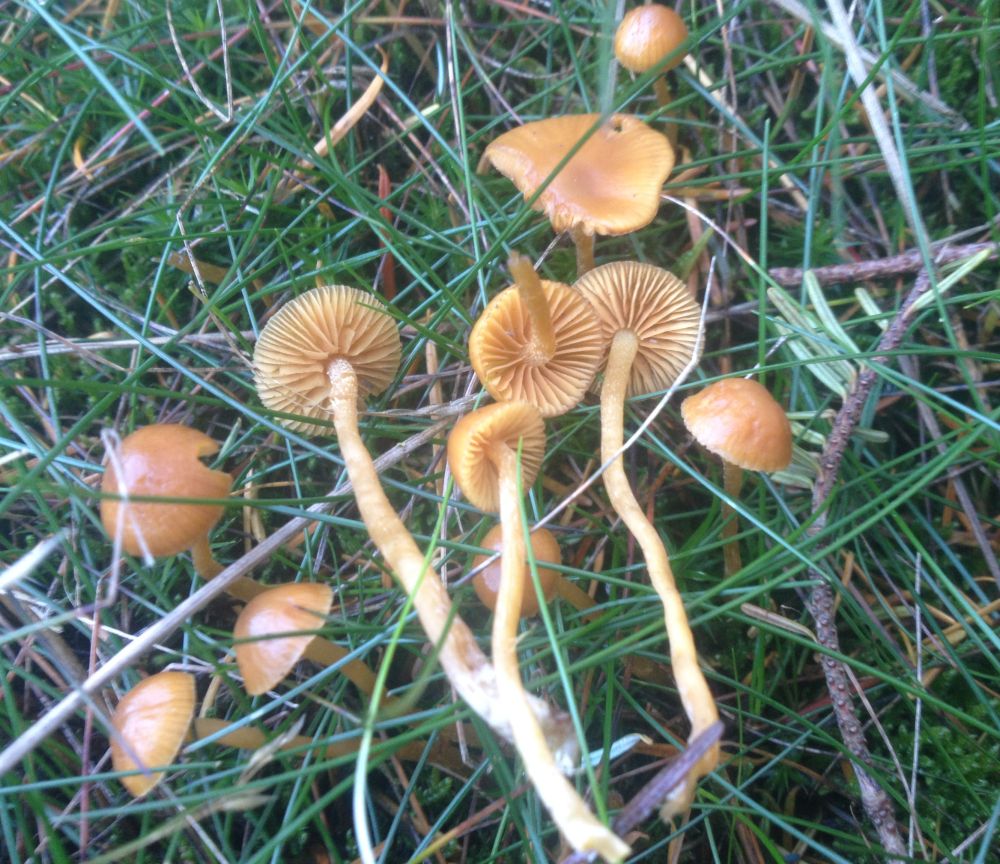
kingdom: Fungi
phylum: Basidiomycota
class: Agaricomycetes
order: Agaricales
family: Hymenogastraceae
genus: Galerina
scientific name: Galerina
